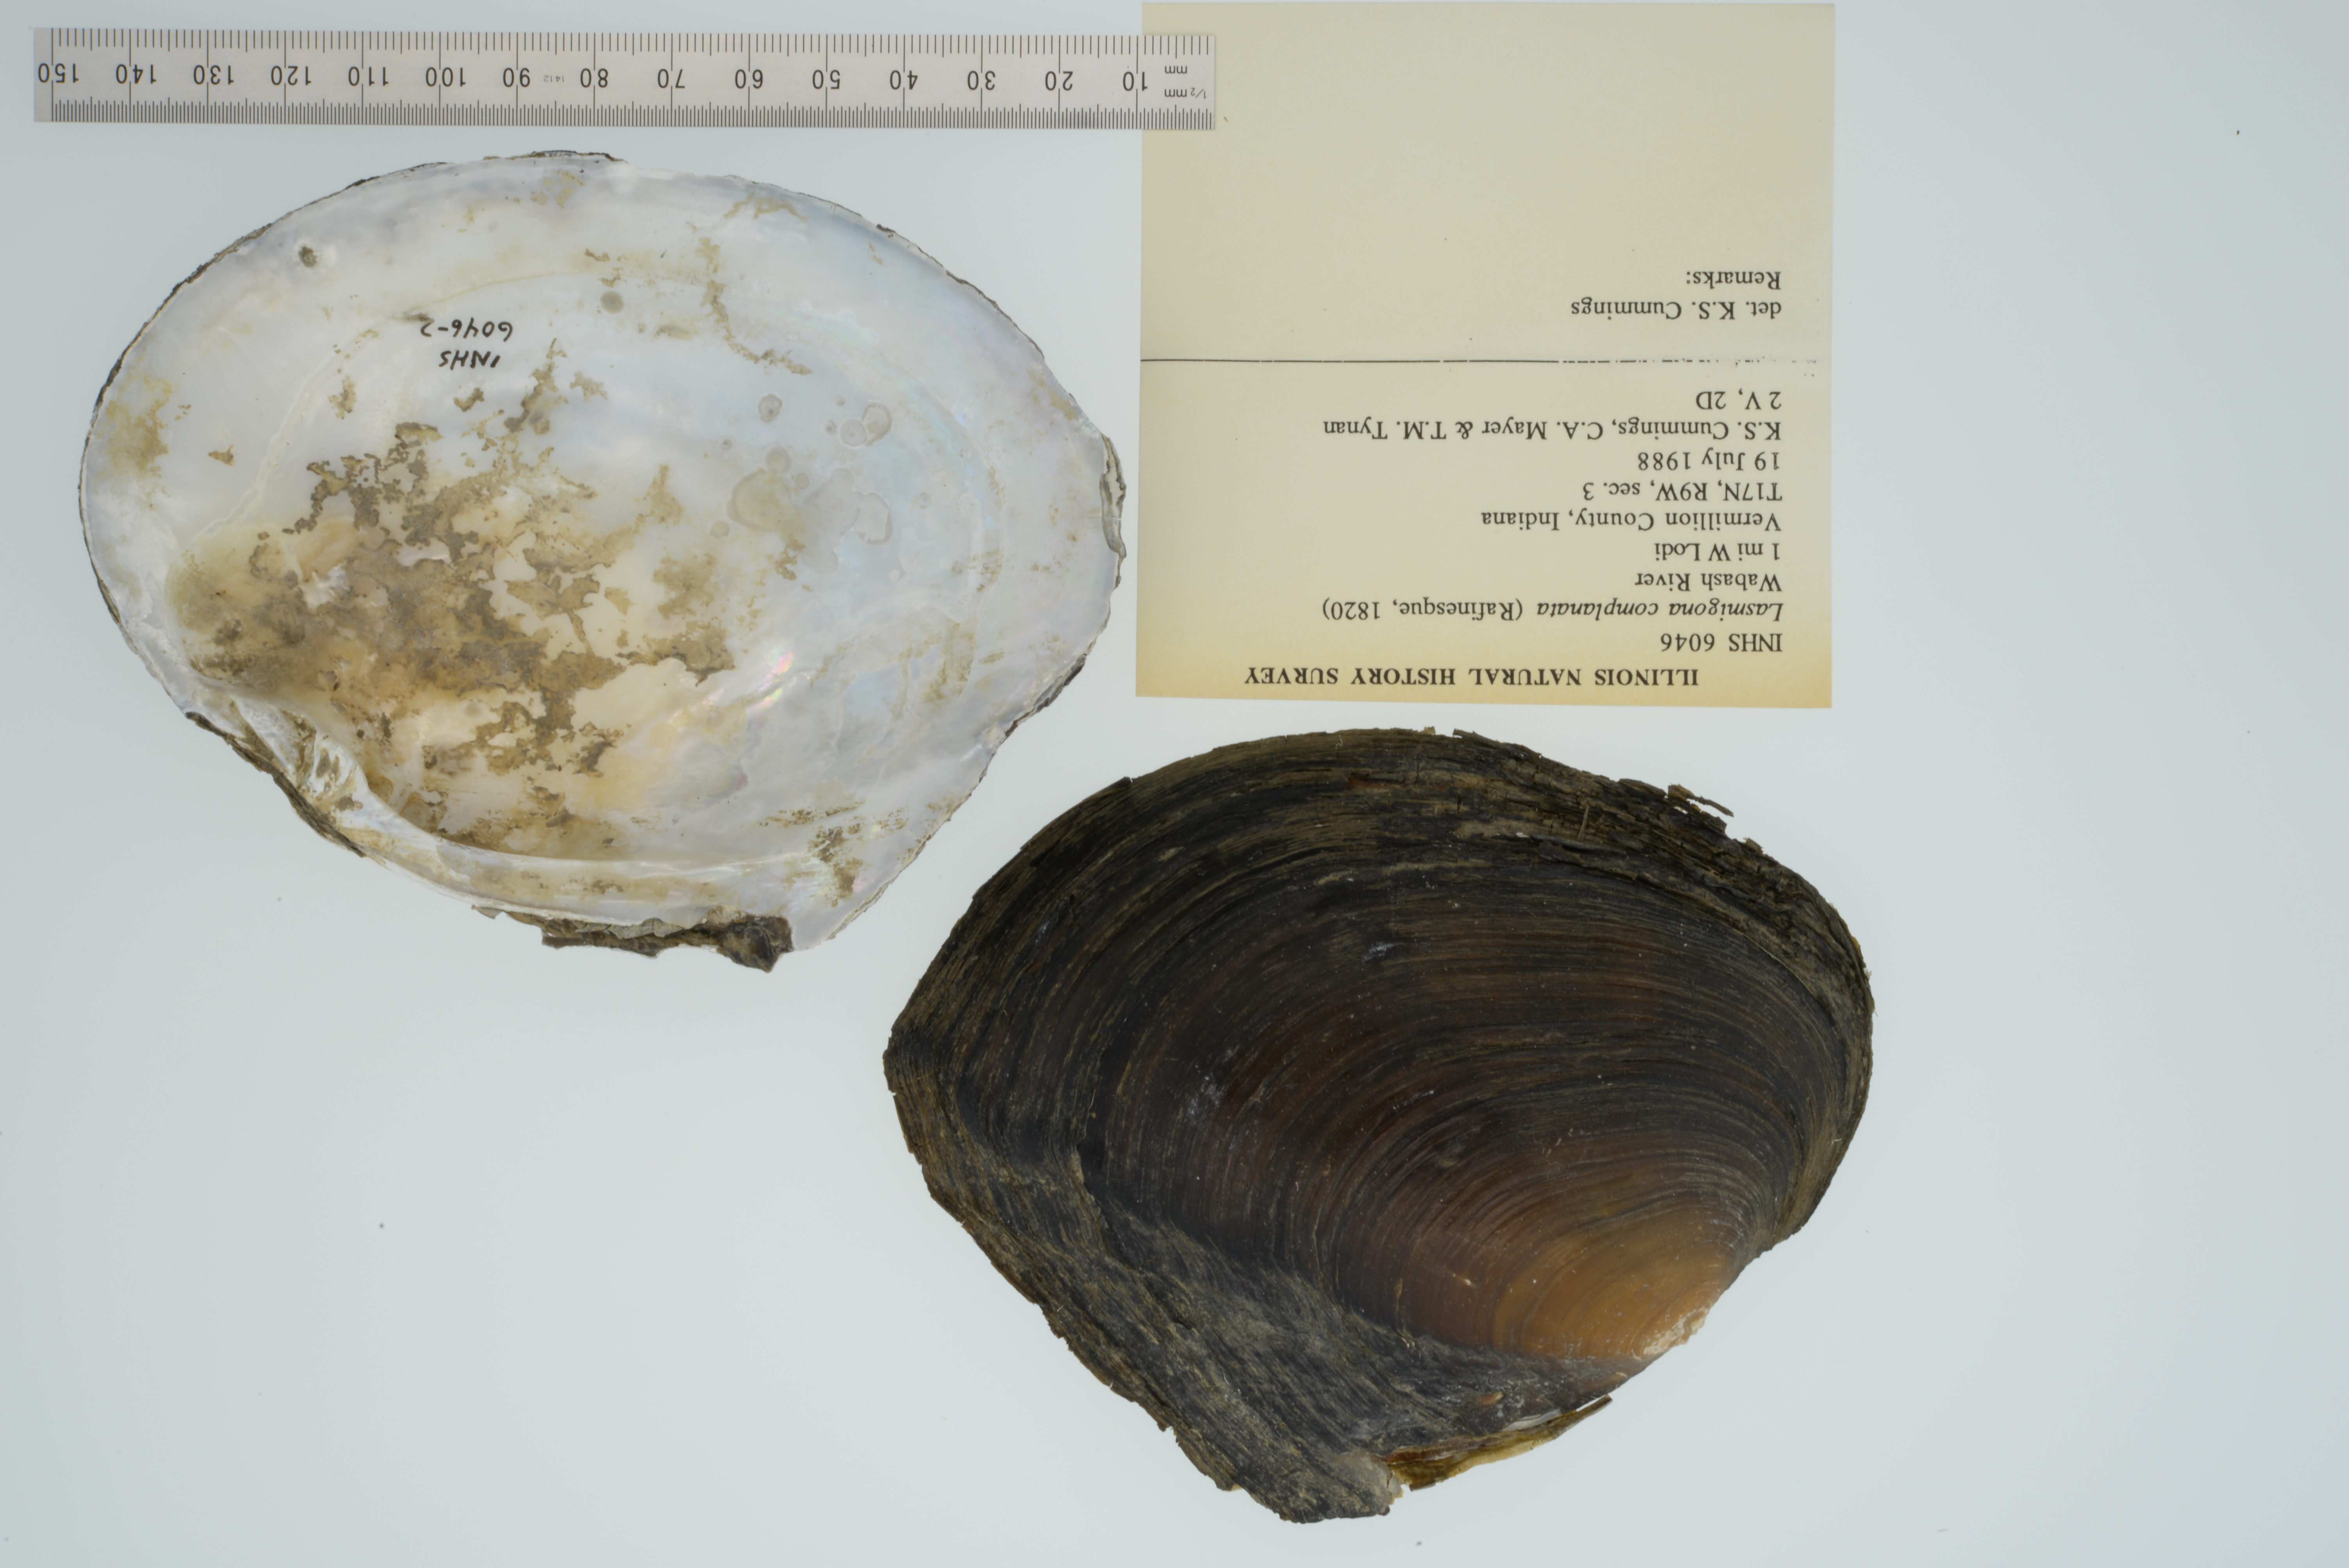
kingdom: Animalia
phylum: Mollusca
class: Bivalvia
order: Unionida
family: Unionidae
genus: Lasmigona
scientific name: Lasmigona complanata
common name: White heelsplitter
